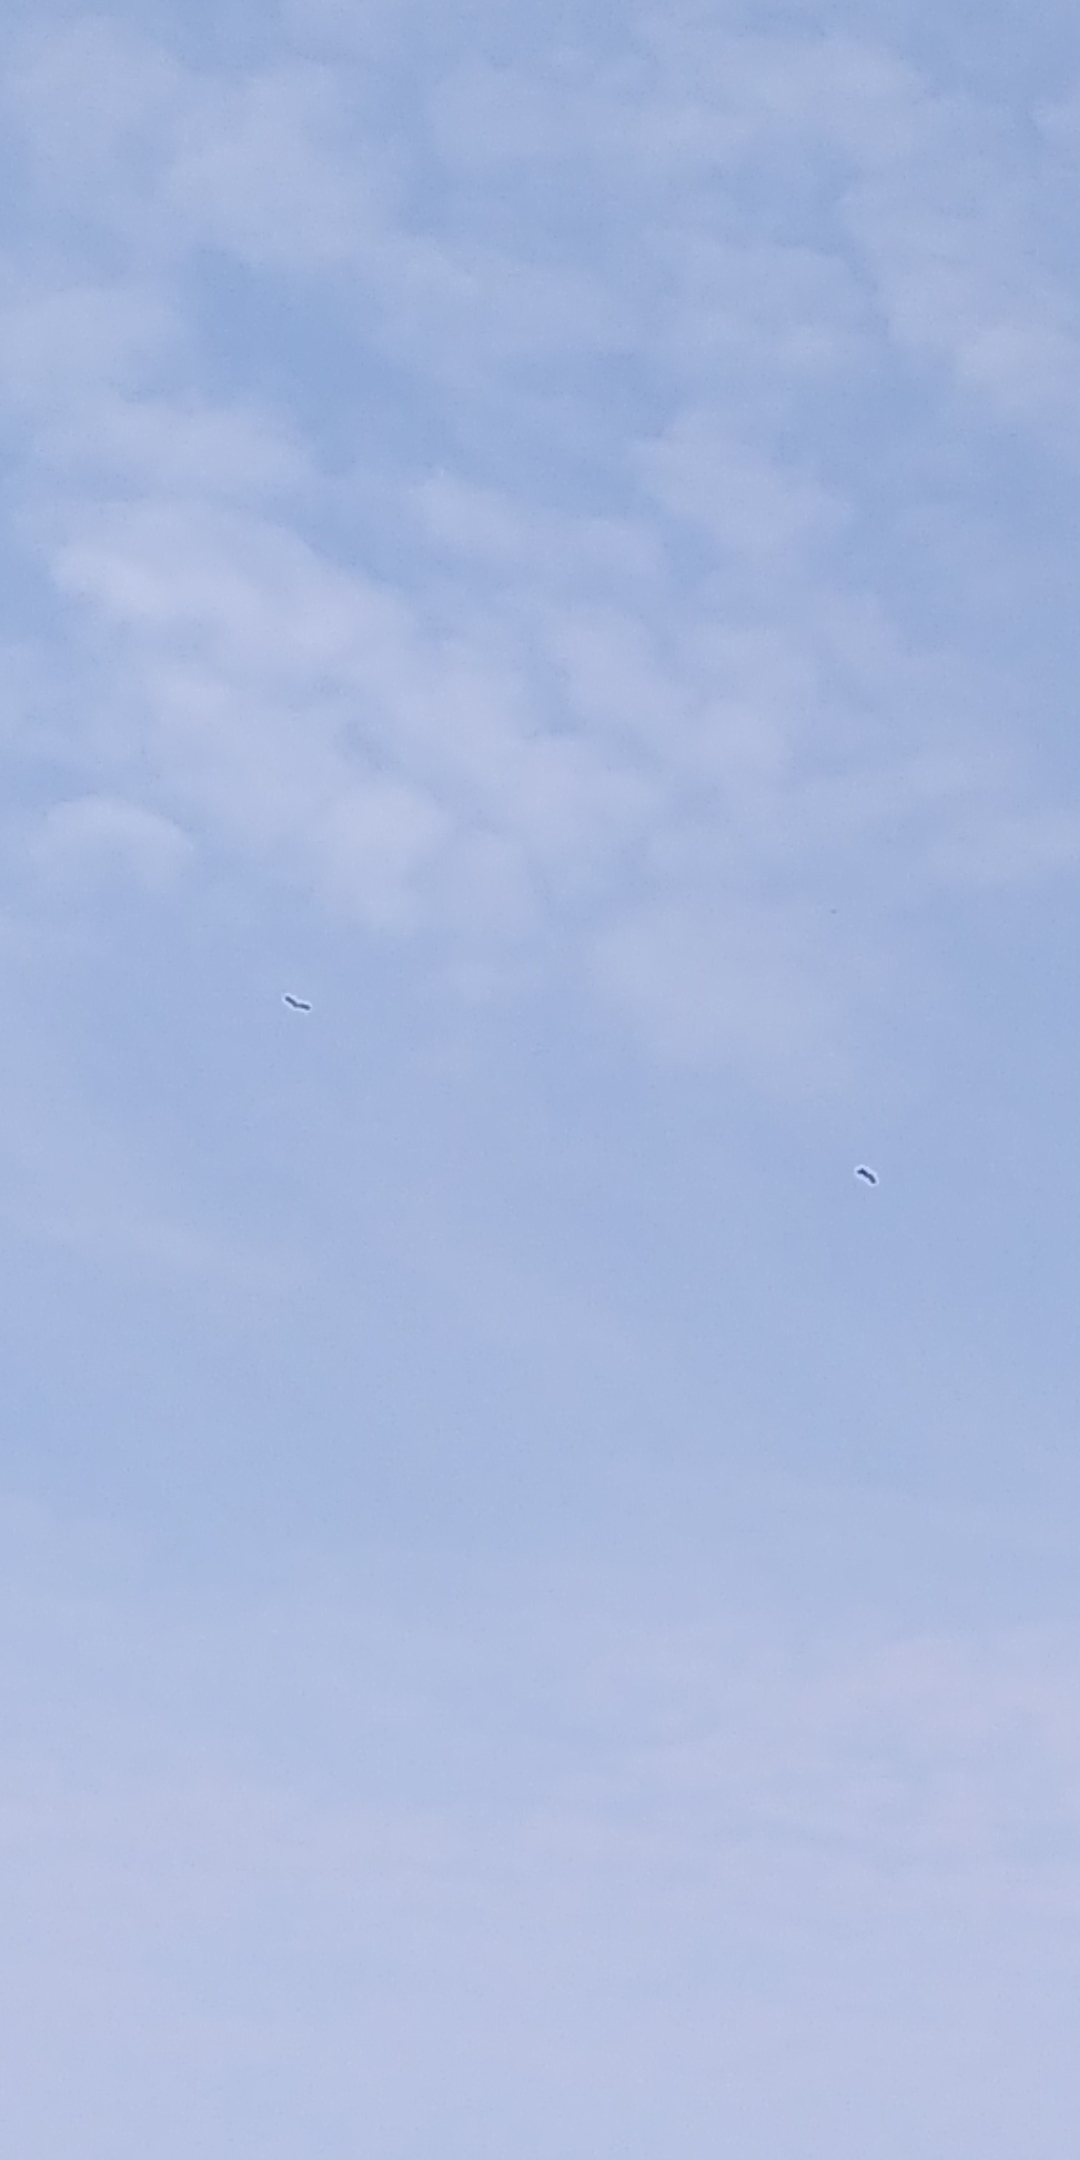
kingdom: Animalia
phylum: Chordata
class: Aves
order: Accipitriformes
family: Accipitridae
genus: Haliaeetus
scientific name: Haliaeetus albicilla
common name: Havørn
